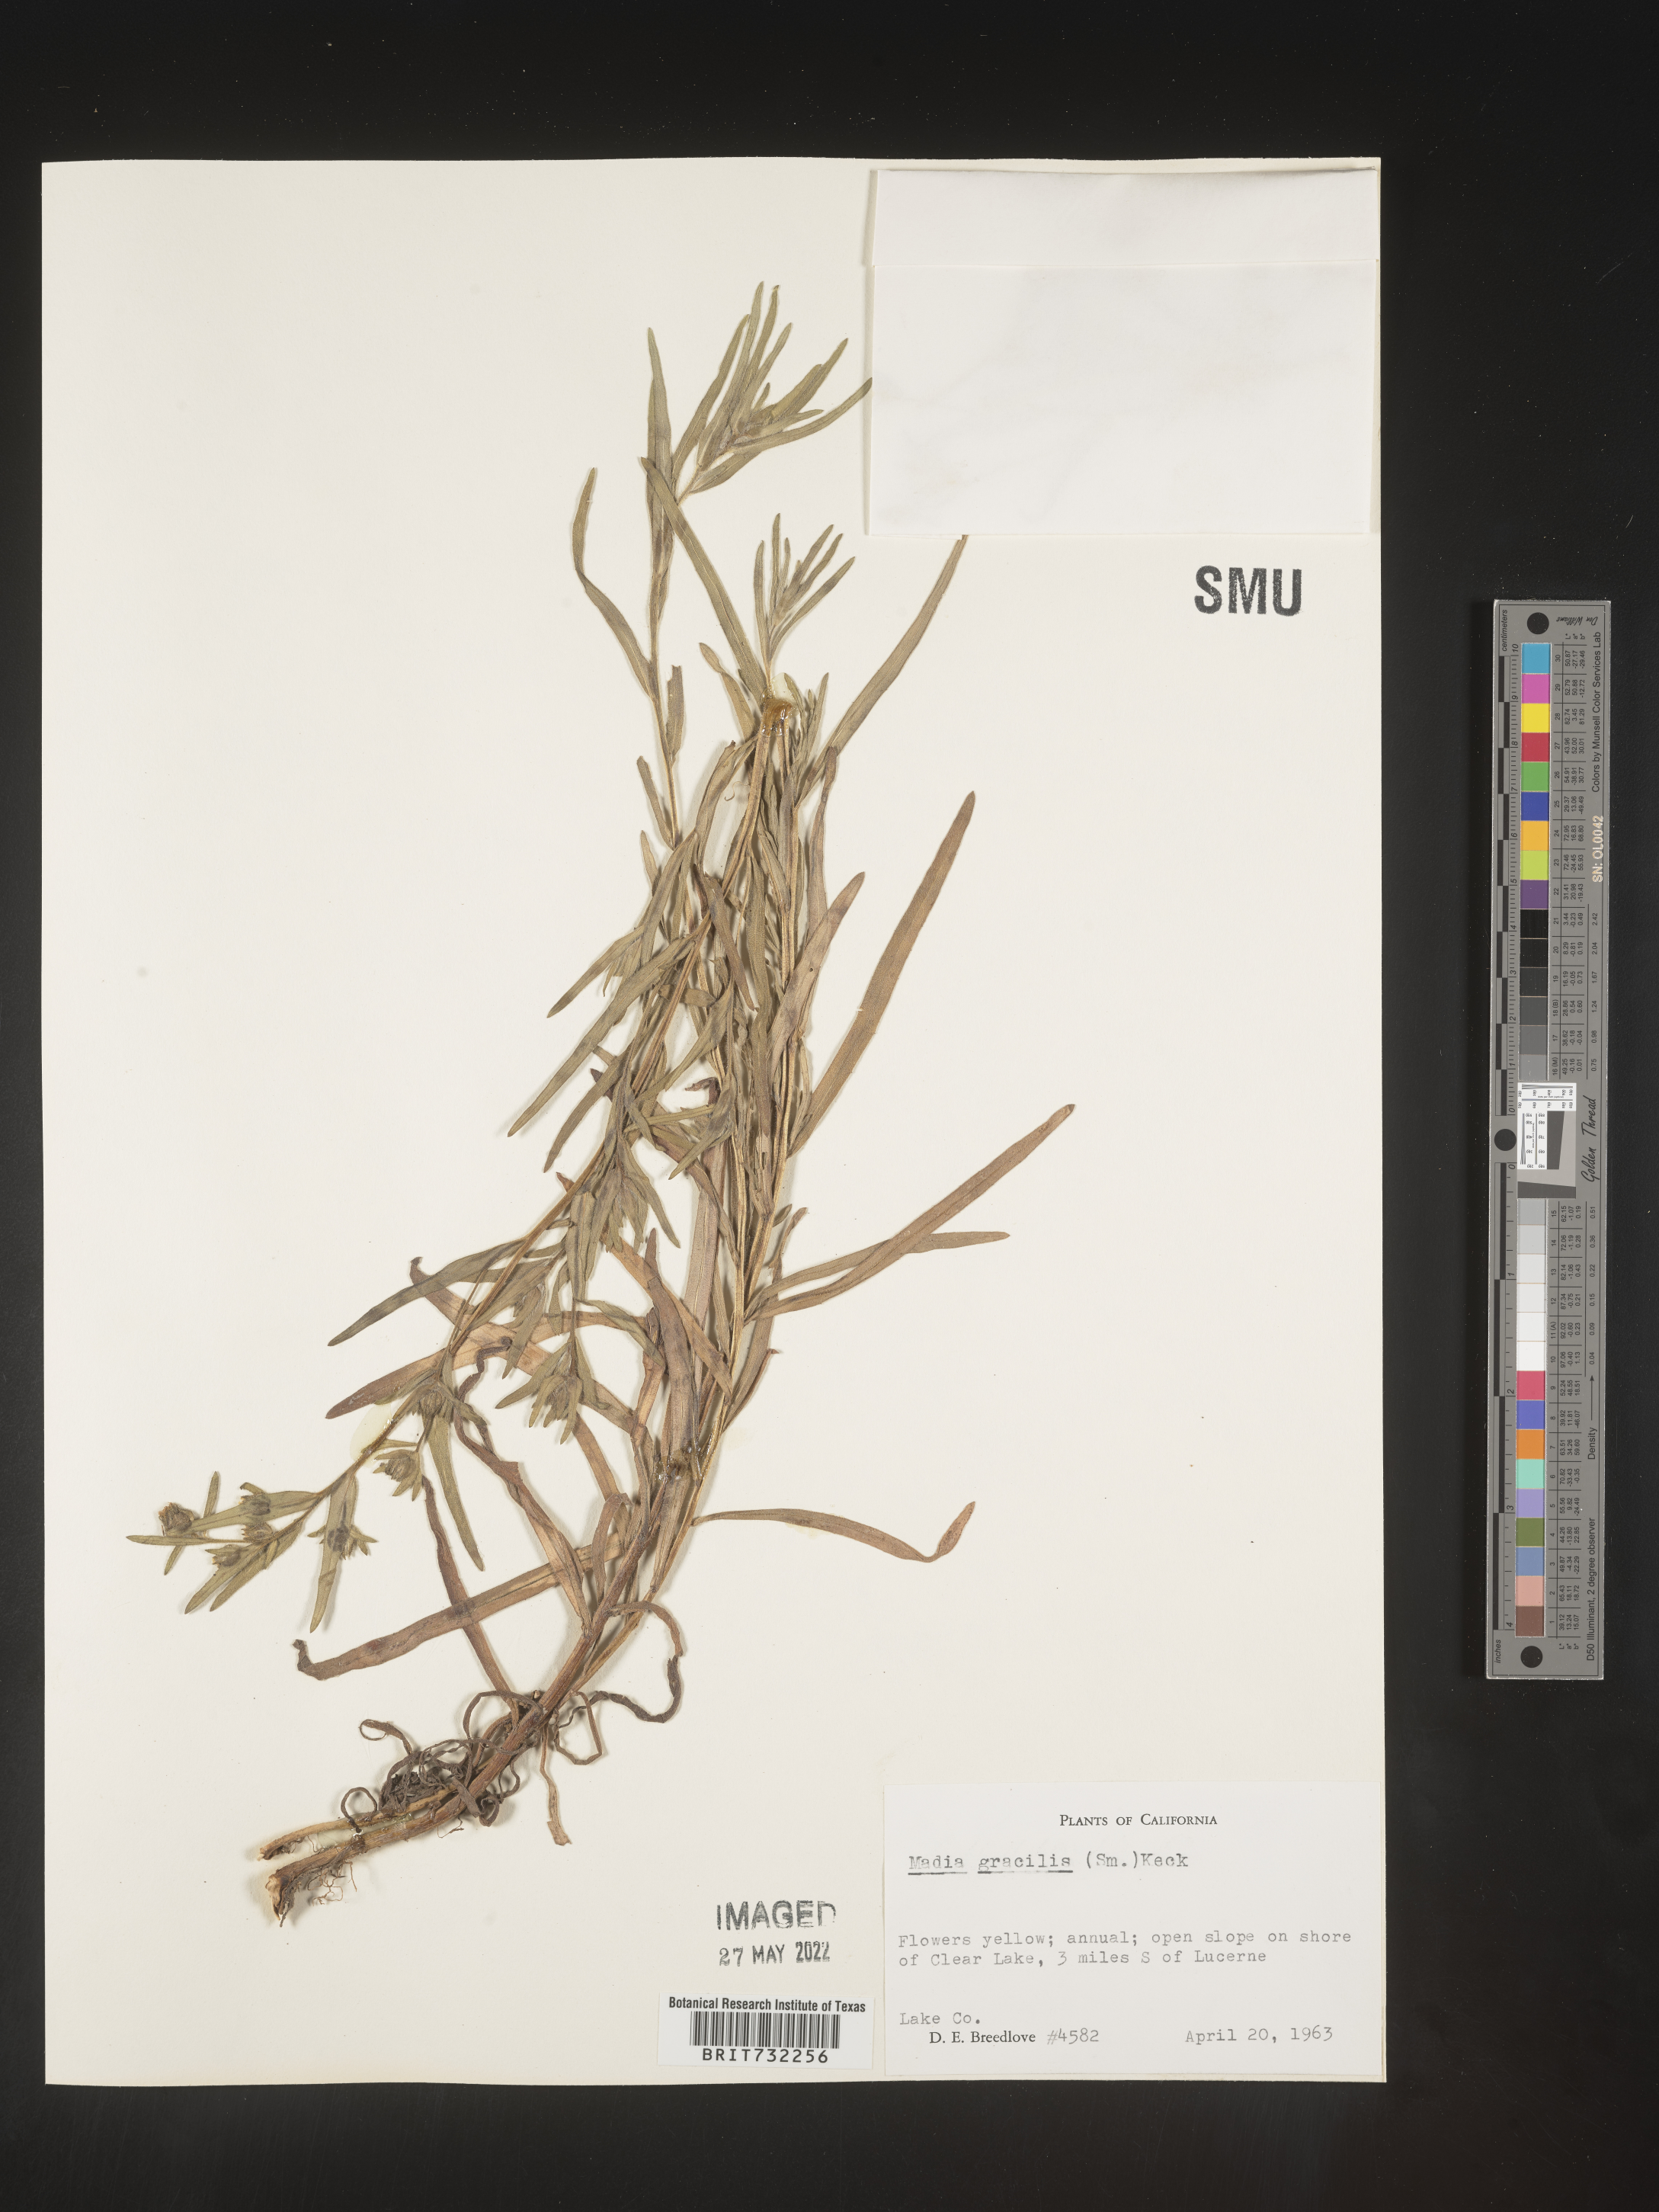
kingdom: Plantae
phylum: Tracheophyta
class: Magnoliopsida
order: Asterales
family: Asteraceae
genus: Madia
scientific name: Madia gracilis
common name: Grassy tarweed
